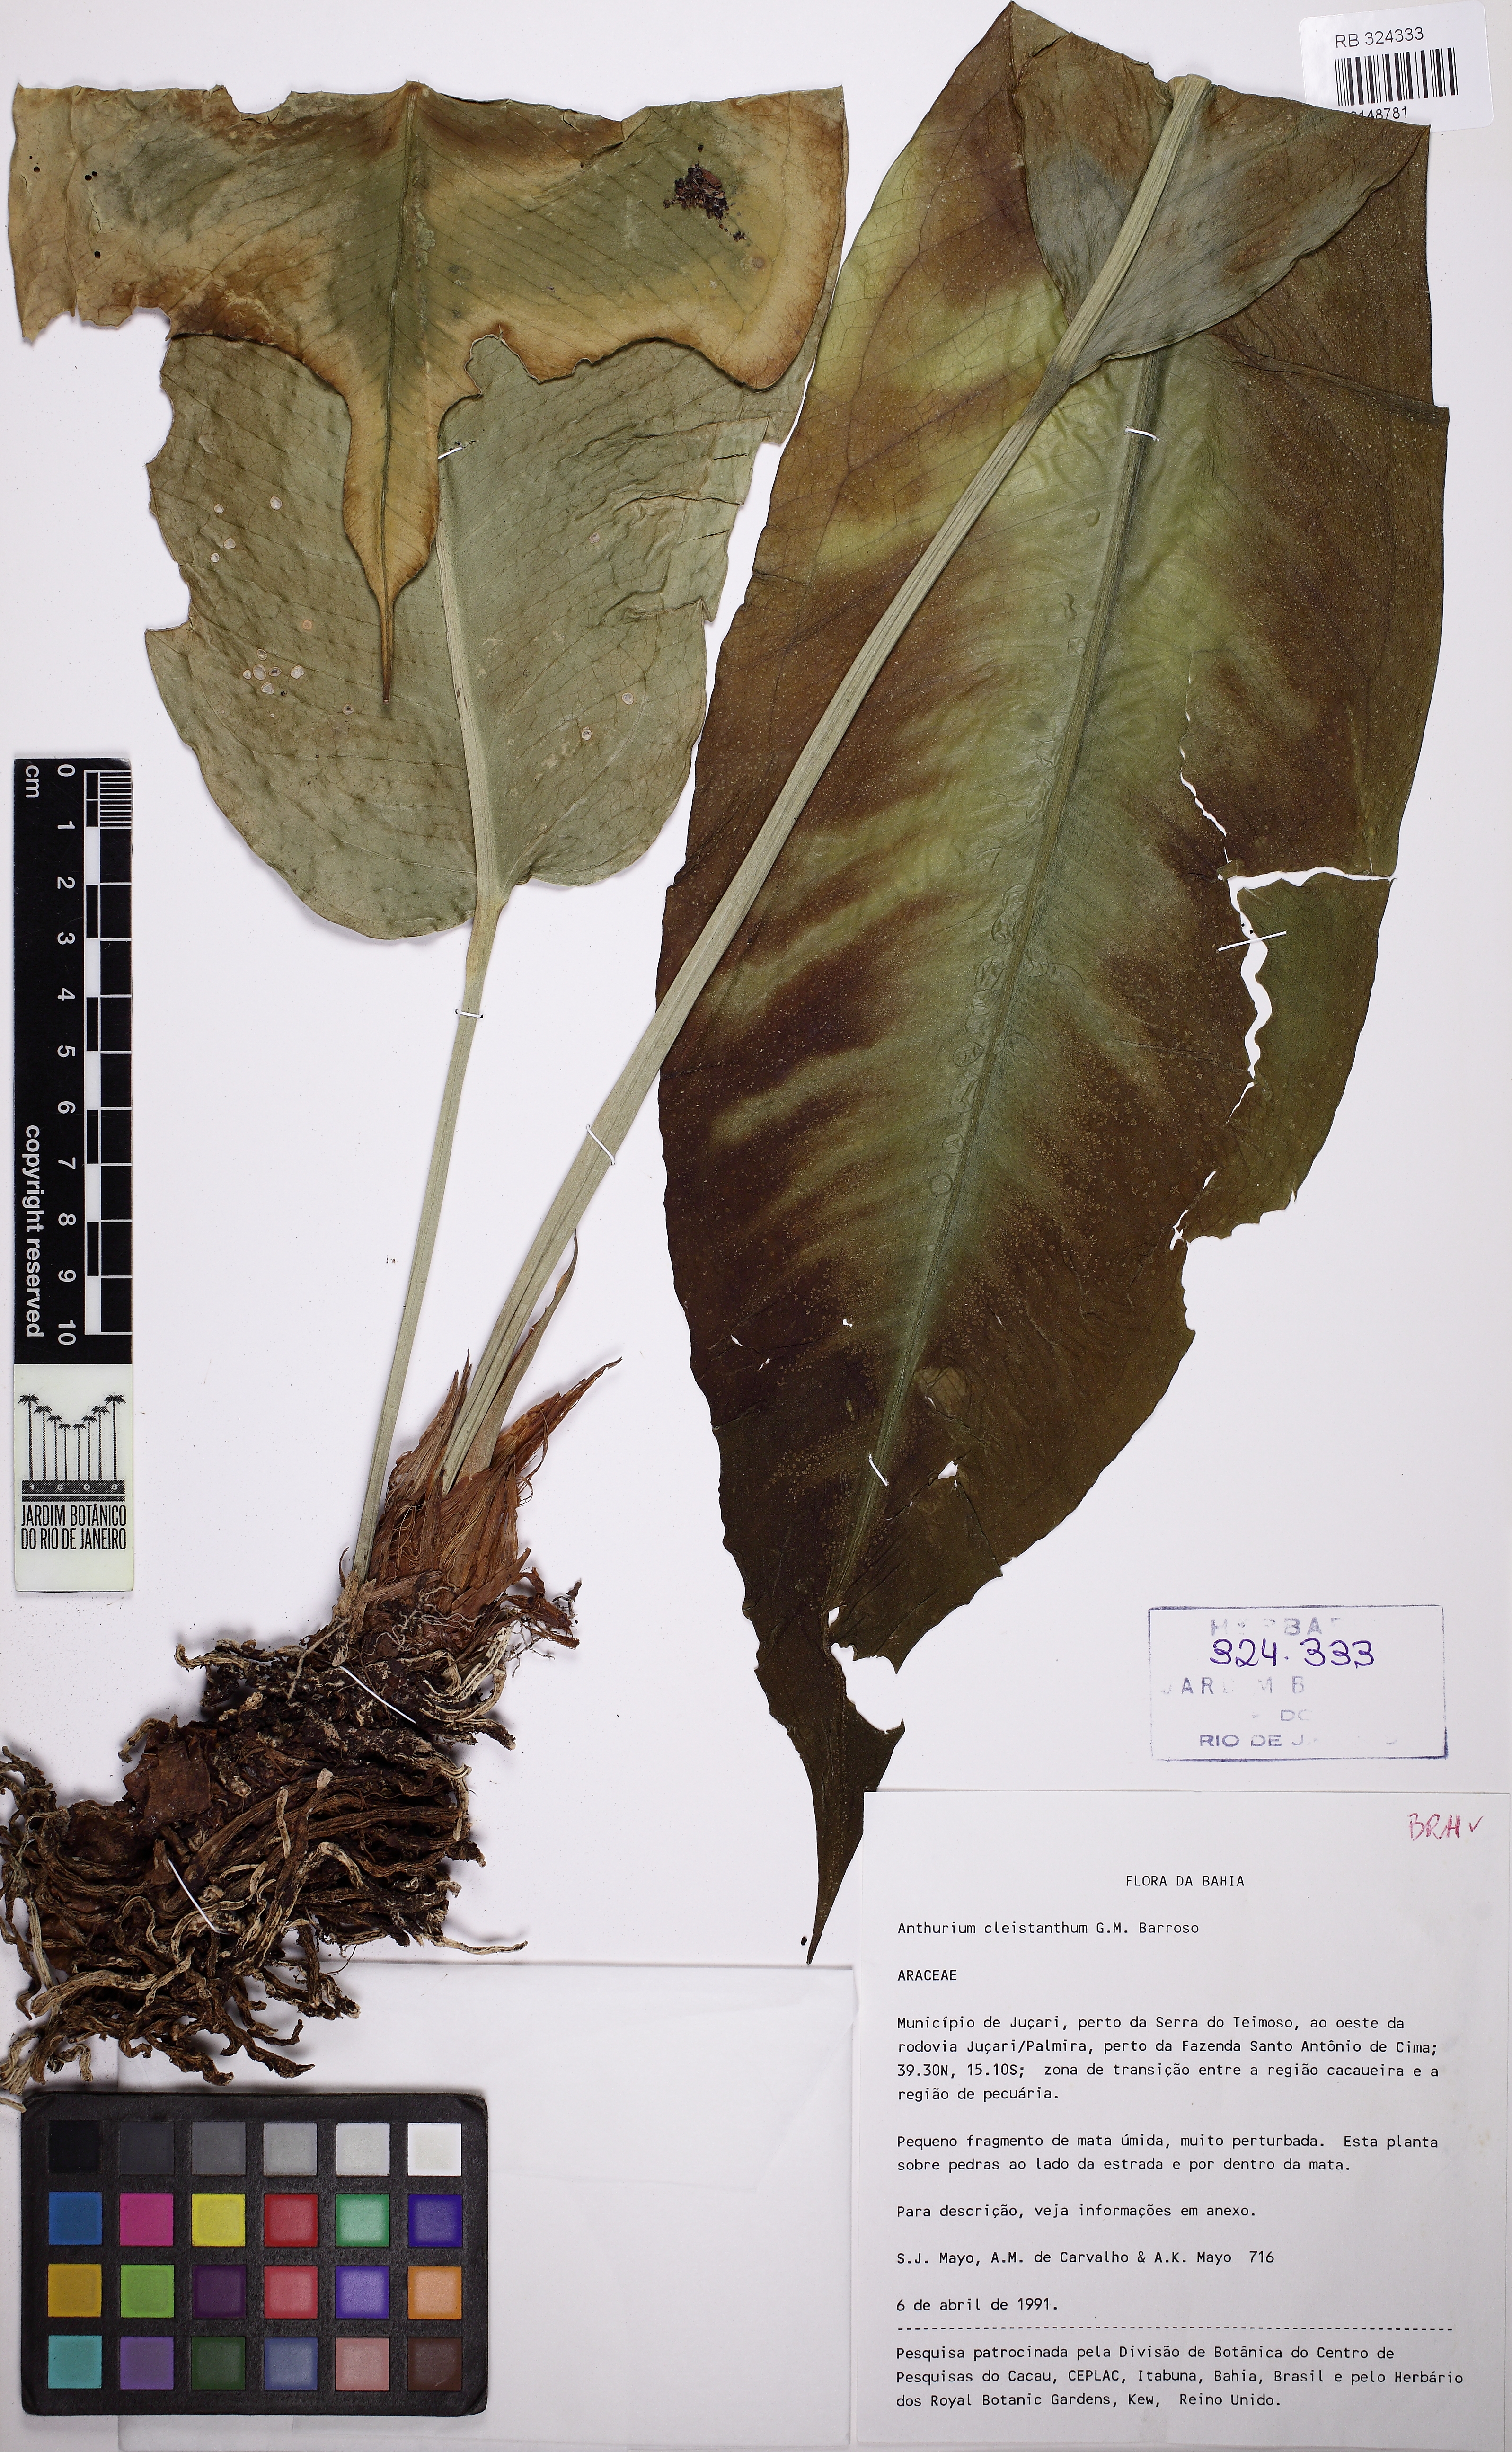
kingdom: Plantae
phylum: Tracheophyta
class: Liliopsida
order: Alismatales
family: Araceae
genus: Anthurium
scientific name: Anthurium molle
